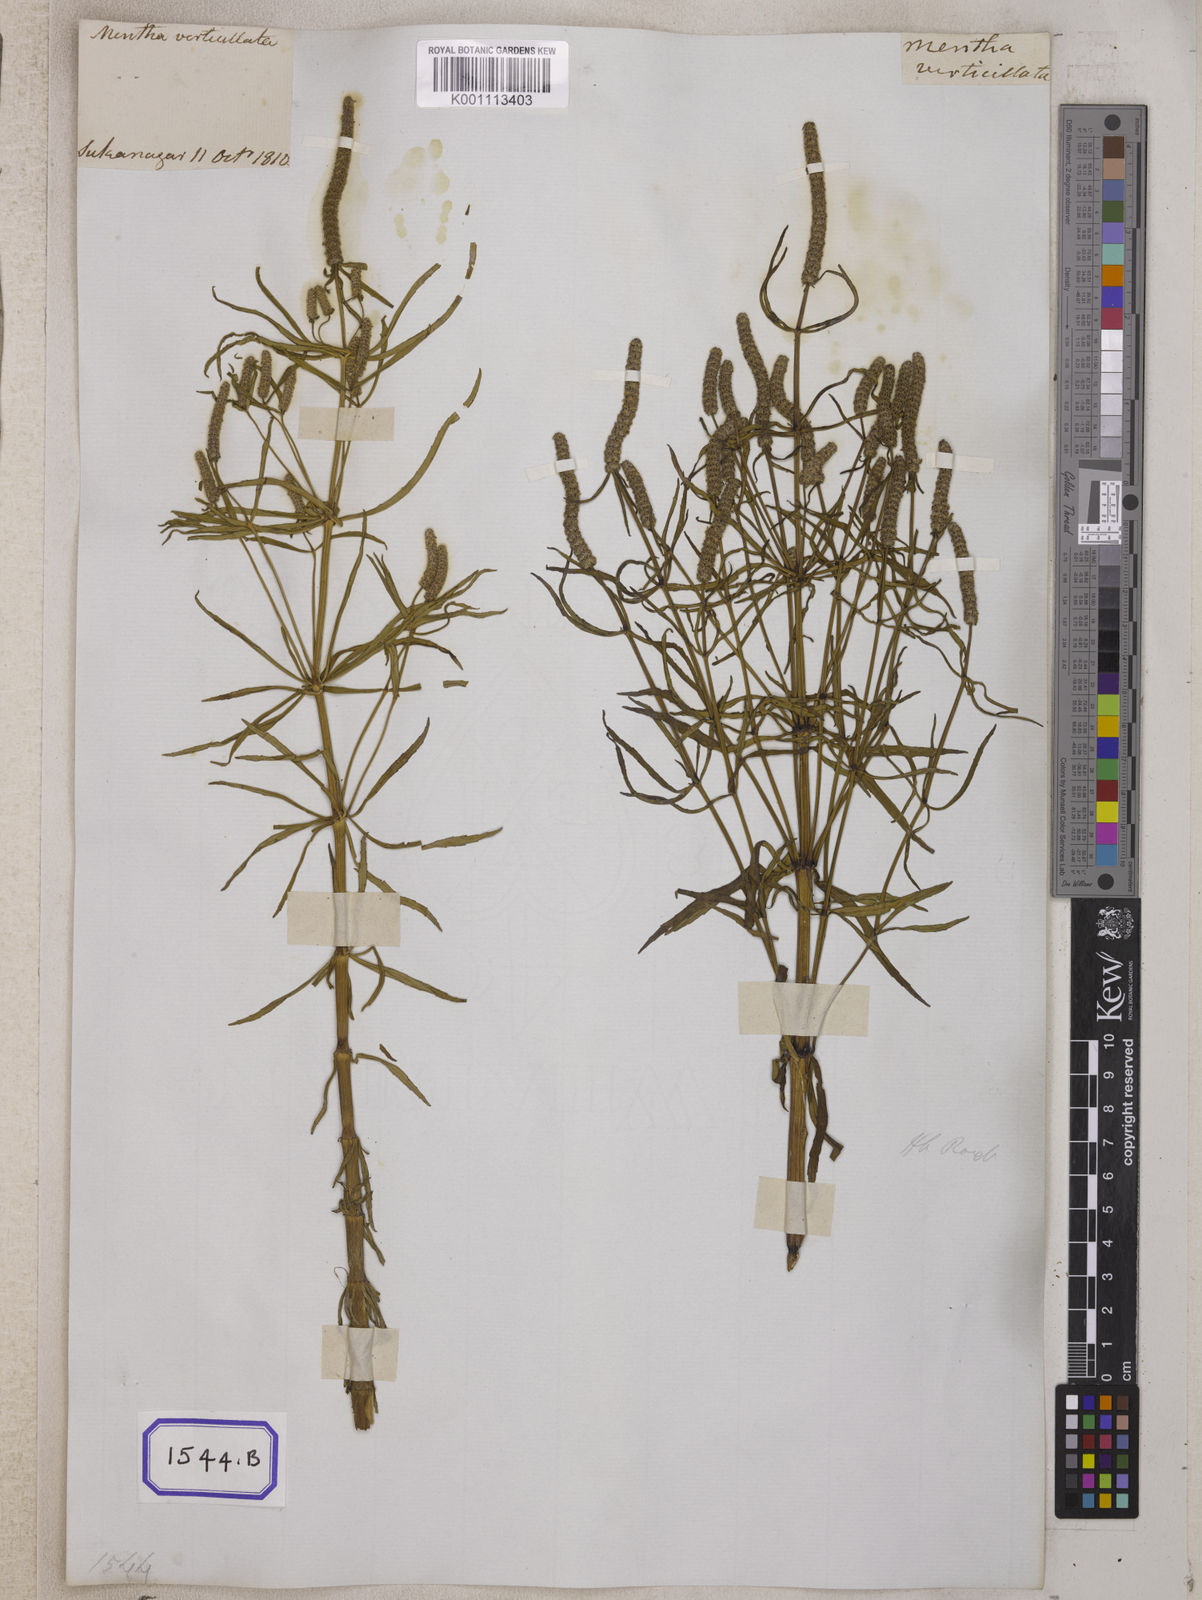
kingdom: Plantae
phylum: Tracheophyta
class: Magnoliopsida
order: Lamiales
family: Lamiaceae
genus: Pogostemon
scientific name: Pogostemon
